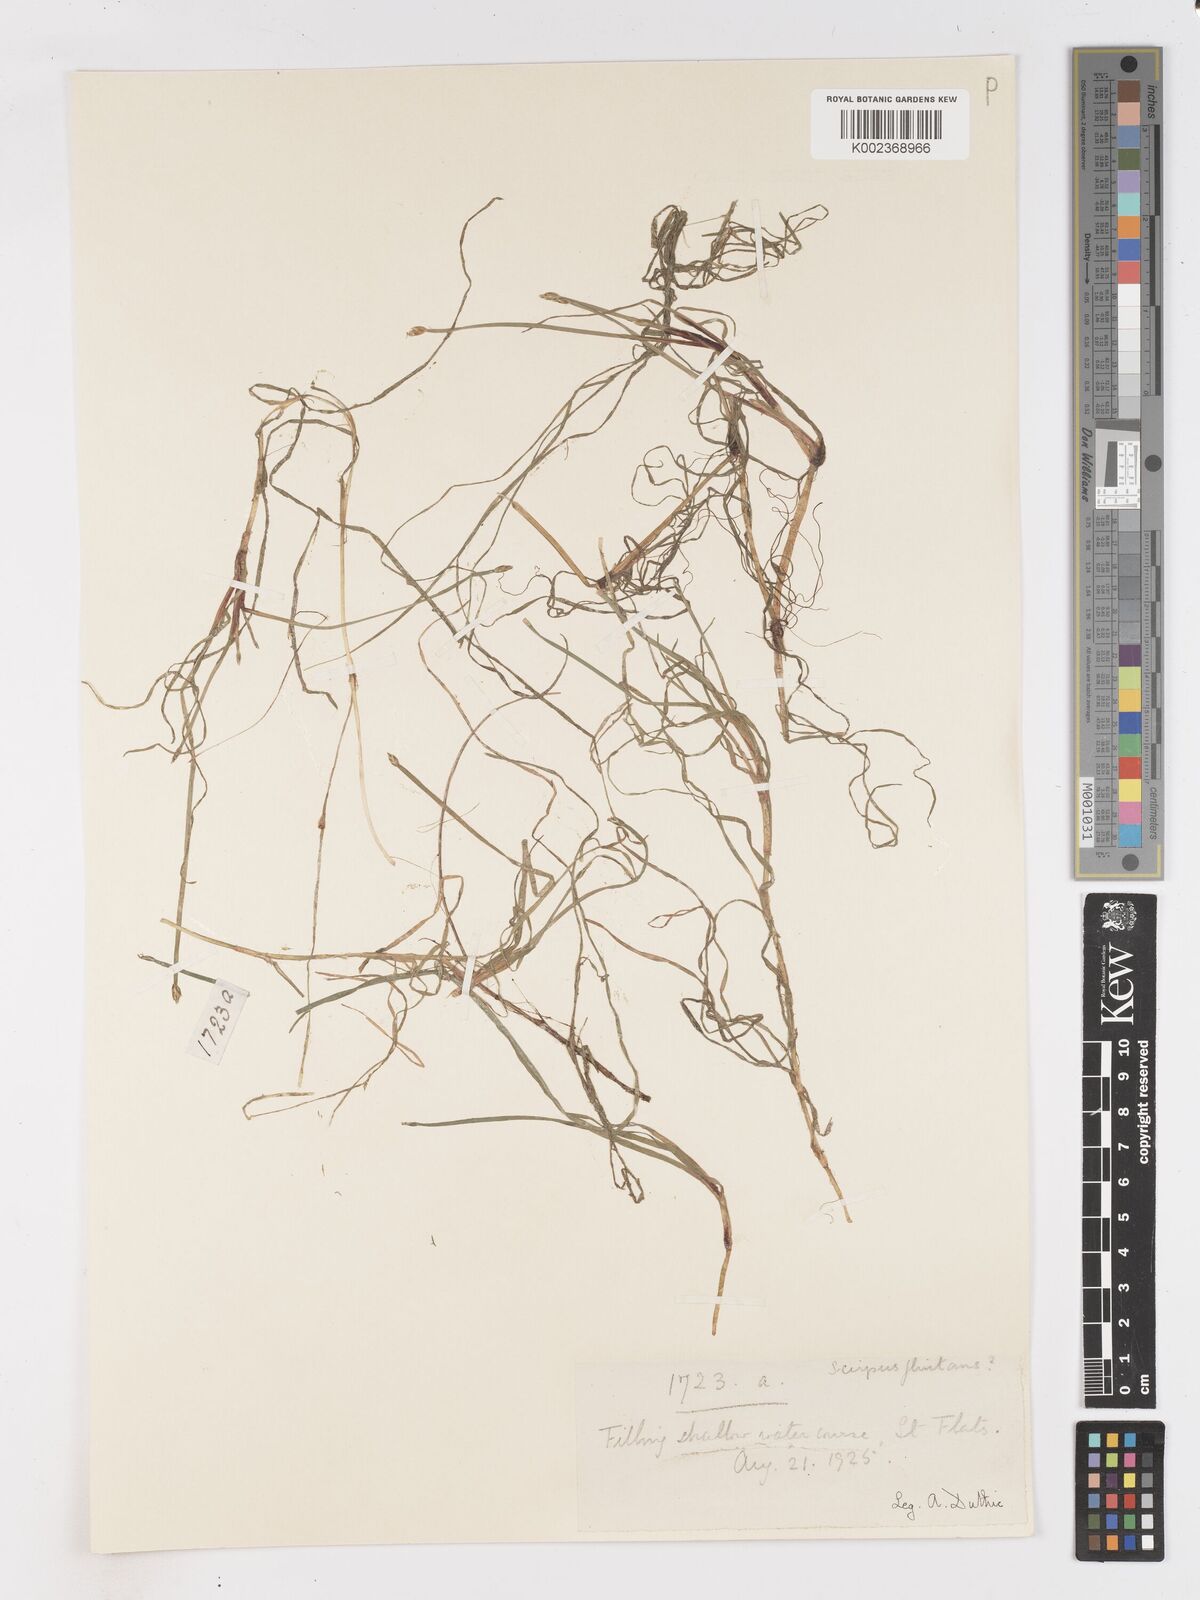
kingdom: Plantae
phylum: Tracheophyta
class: Liliopsida
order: Poales
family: Cyperaceae
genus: Isolepis
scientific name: Isolepis striata
